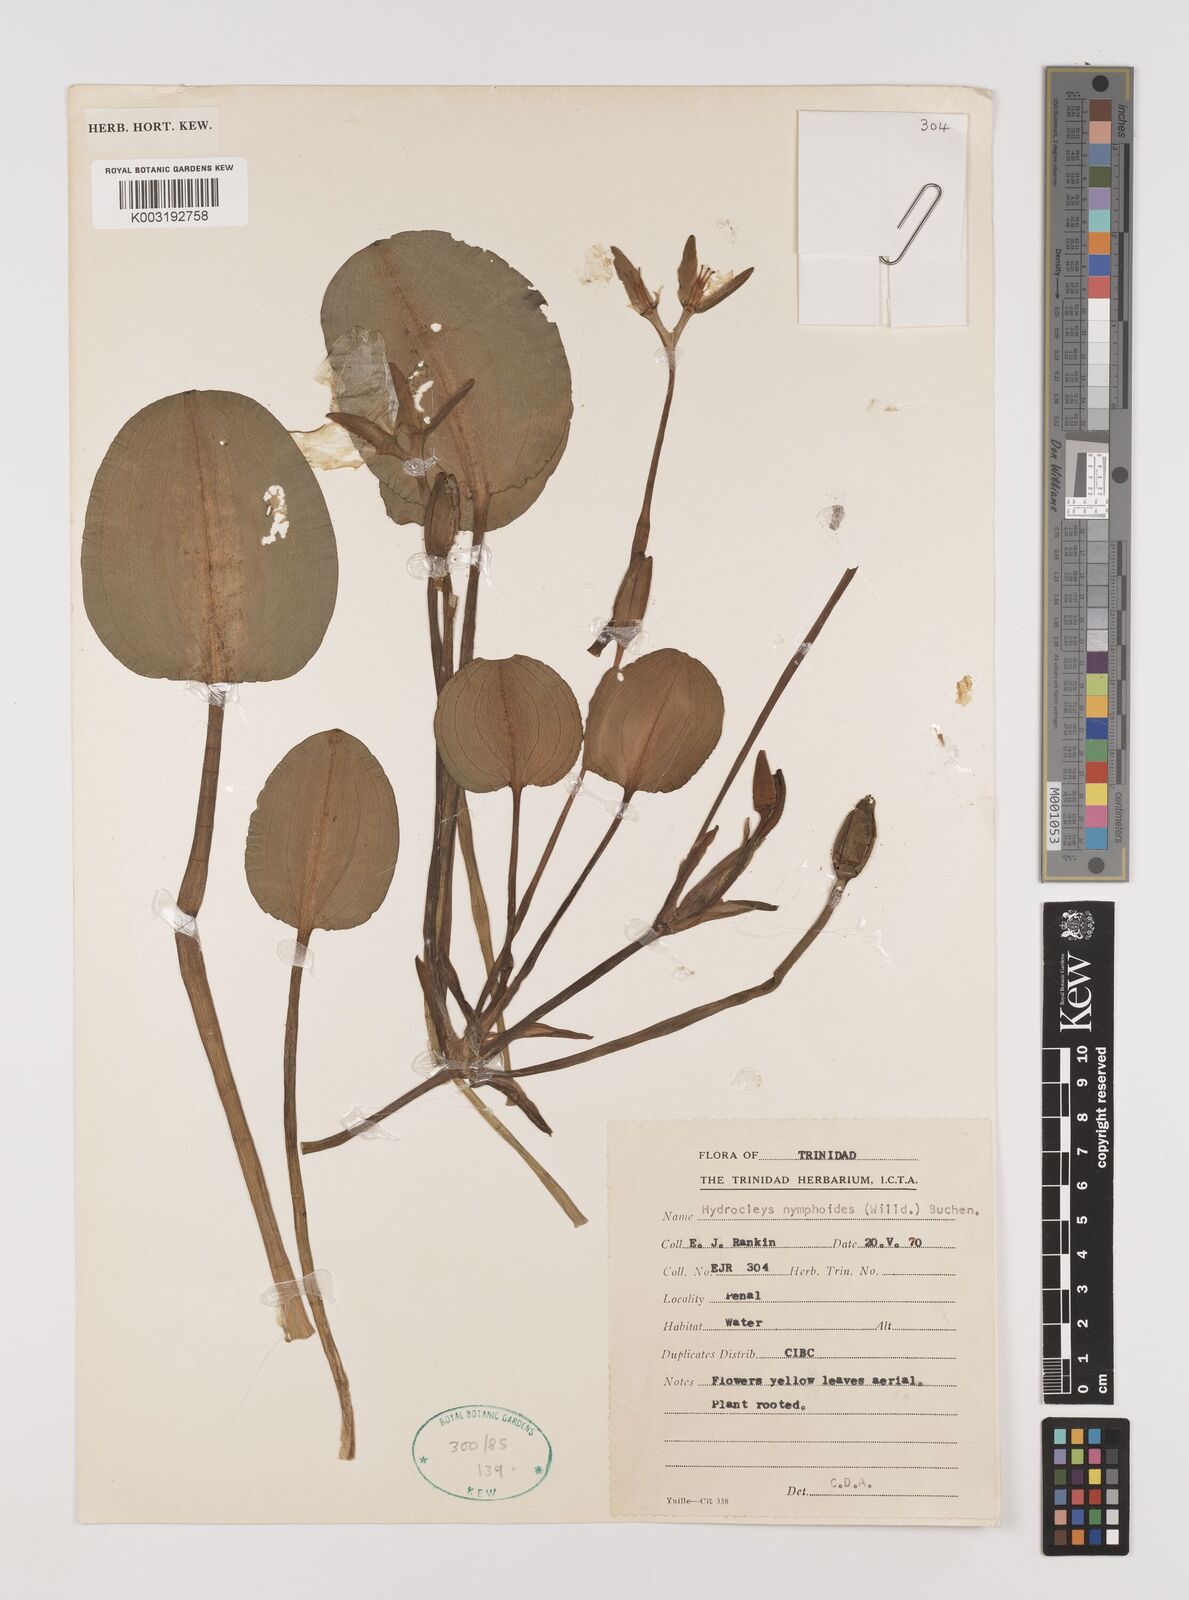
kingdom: Plantae
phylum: Tracheophyta
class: Liliopsida
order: Alismatales
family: Alismataceae
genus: Hydrocleys
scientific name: Hydrocleys nymphoides
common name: Water-poppy
